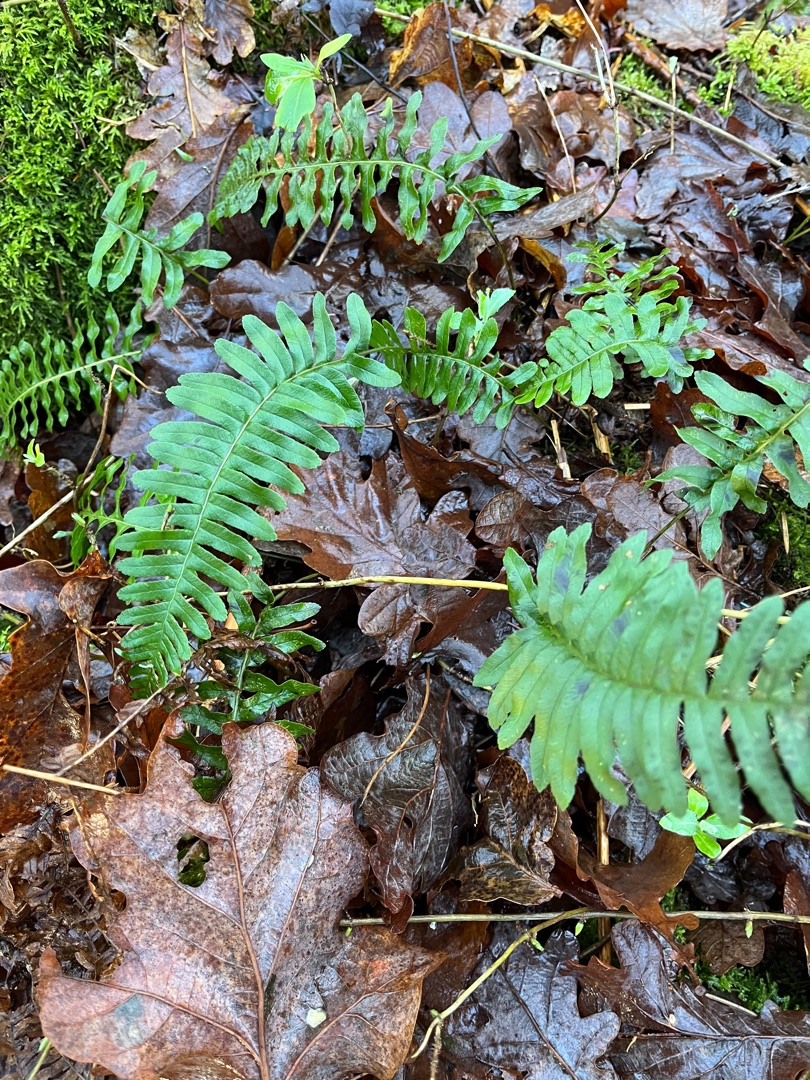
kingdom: Plantae
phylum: Tracheophyta
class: Polypodiopsida
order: Polypodiales
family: Polypodiaceae
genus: Polypodium
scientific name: Polypodium vulgare
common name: Almindelig engelsød
